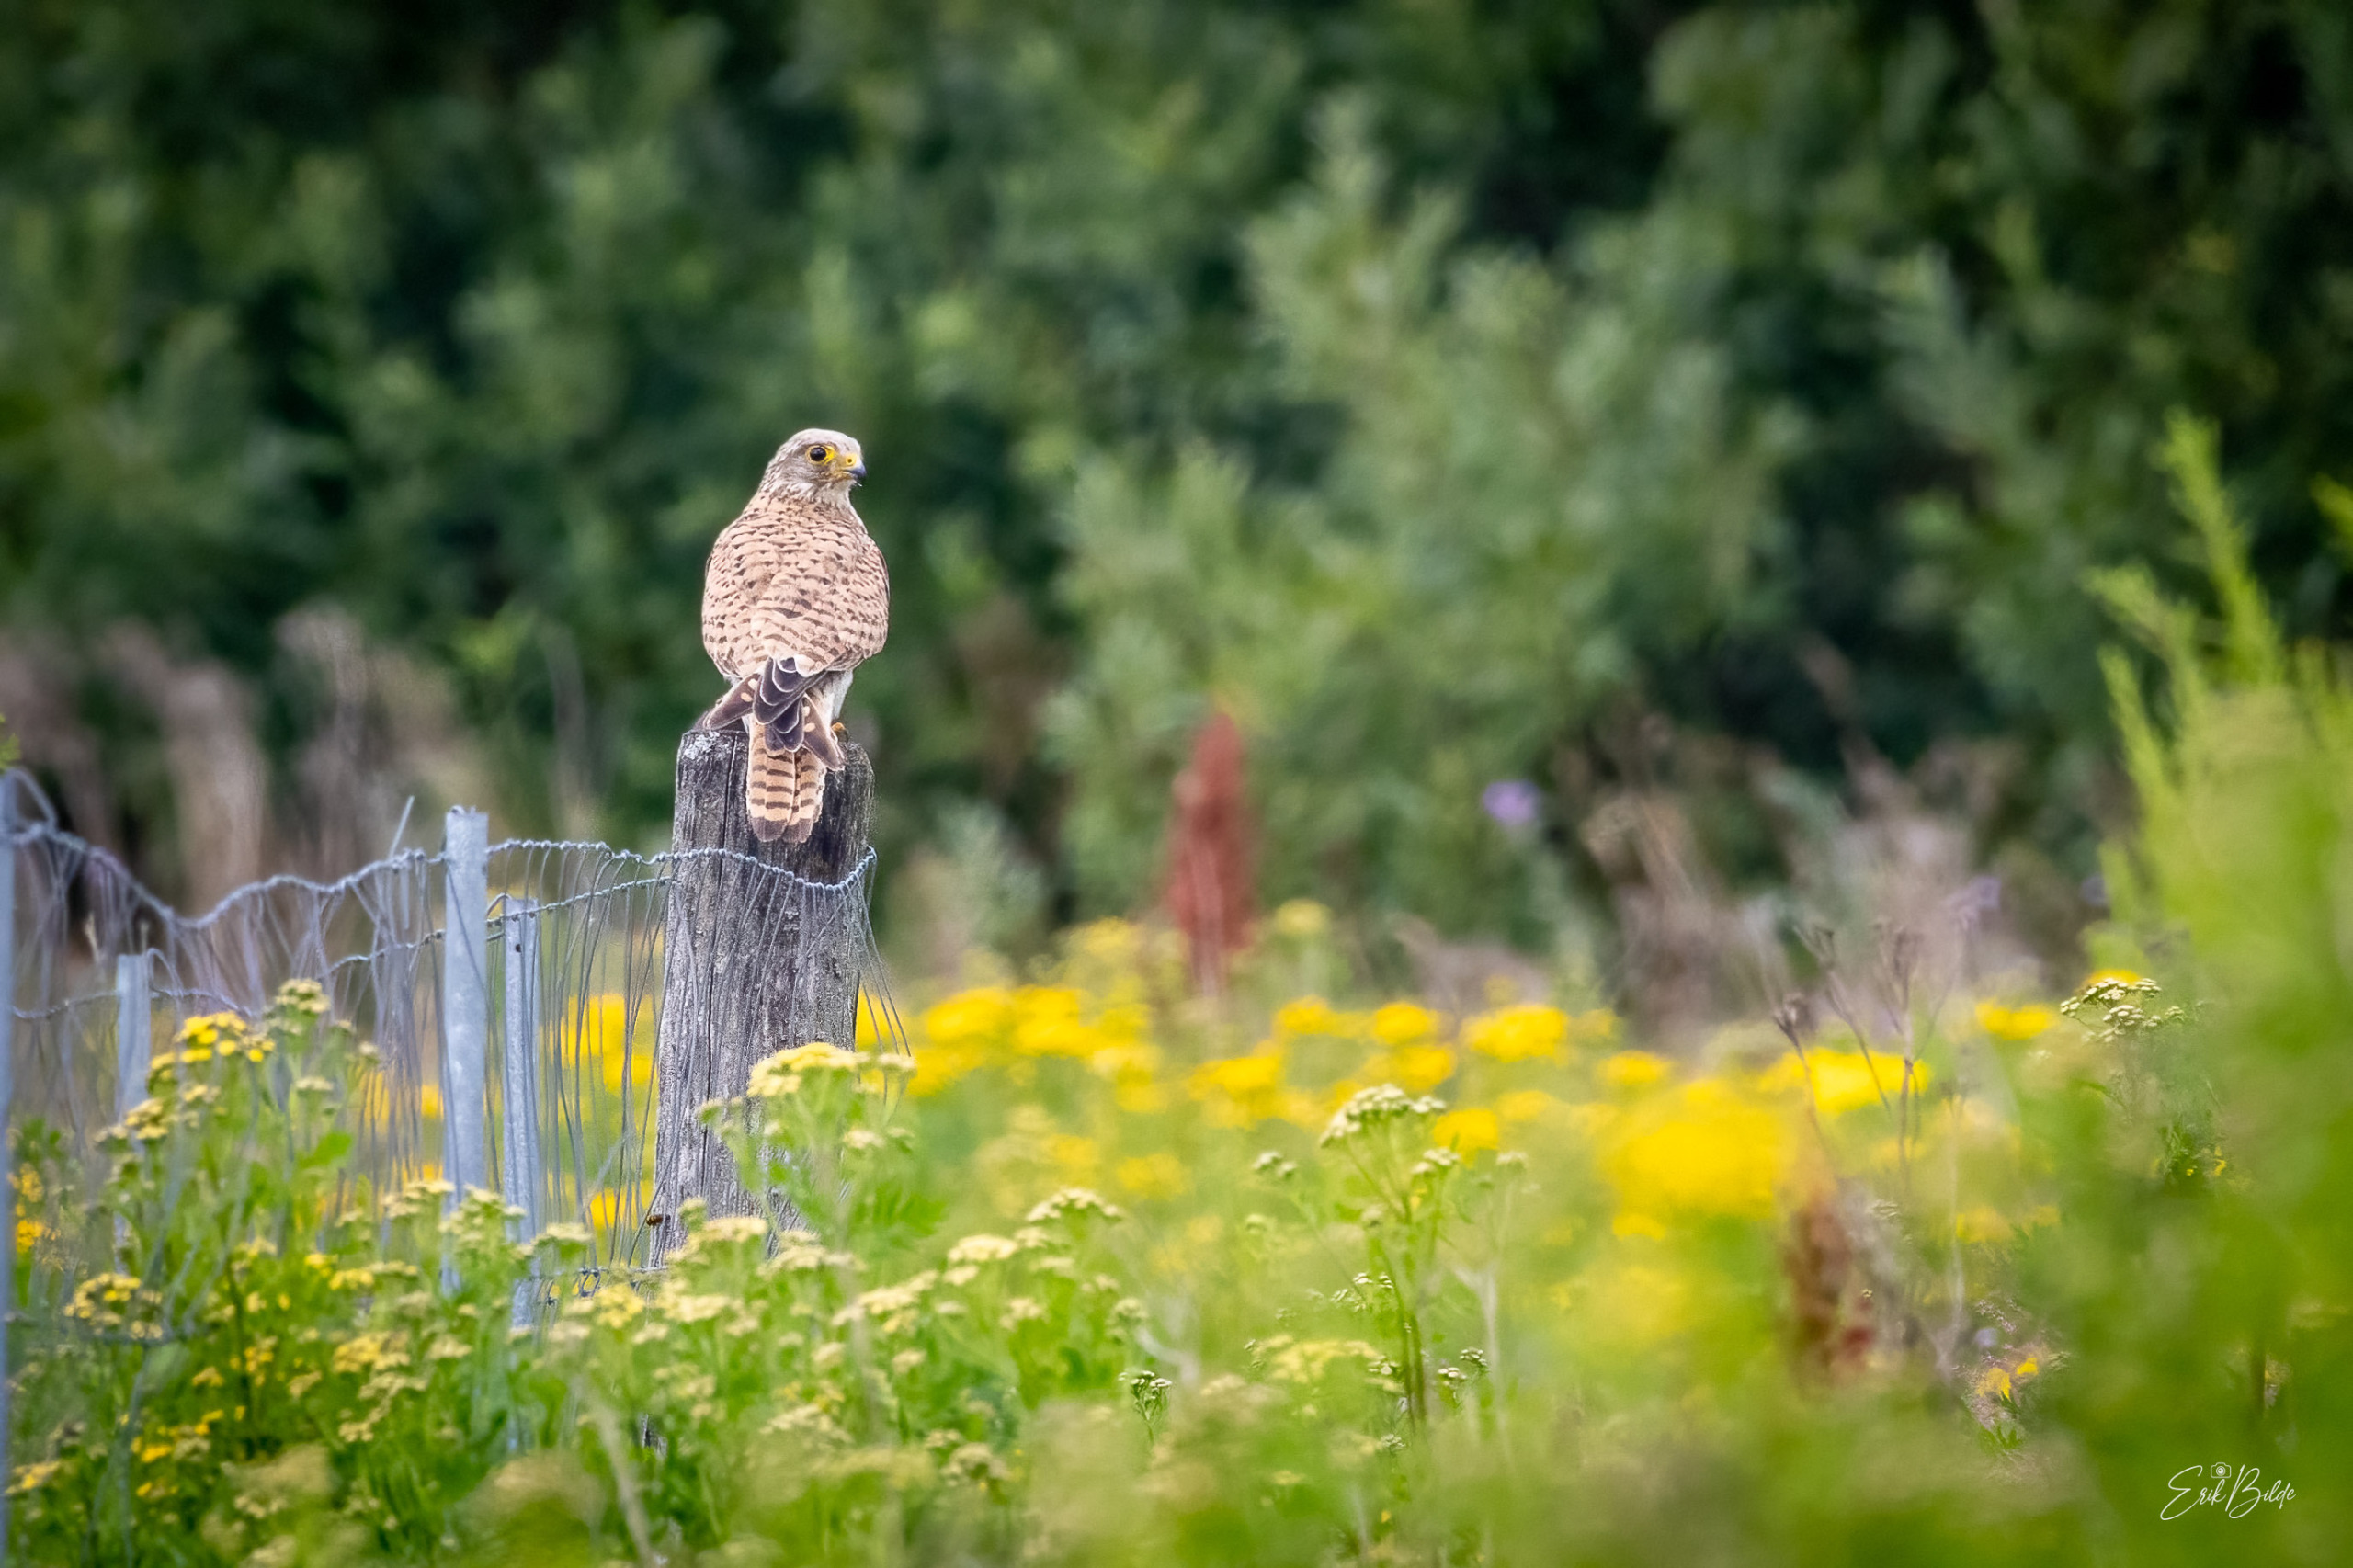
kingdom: Animalia
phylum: Chordata
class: Aves
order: Falconiformes
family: Falconidae
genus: Falco
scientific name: Falco tinnunculus
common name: Tårnfalk
